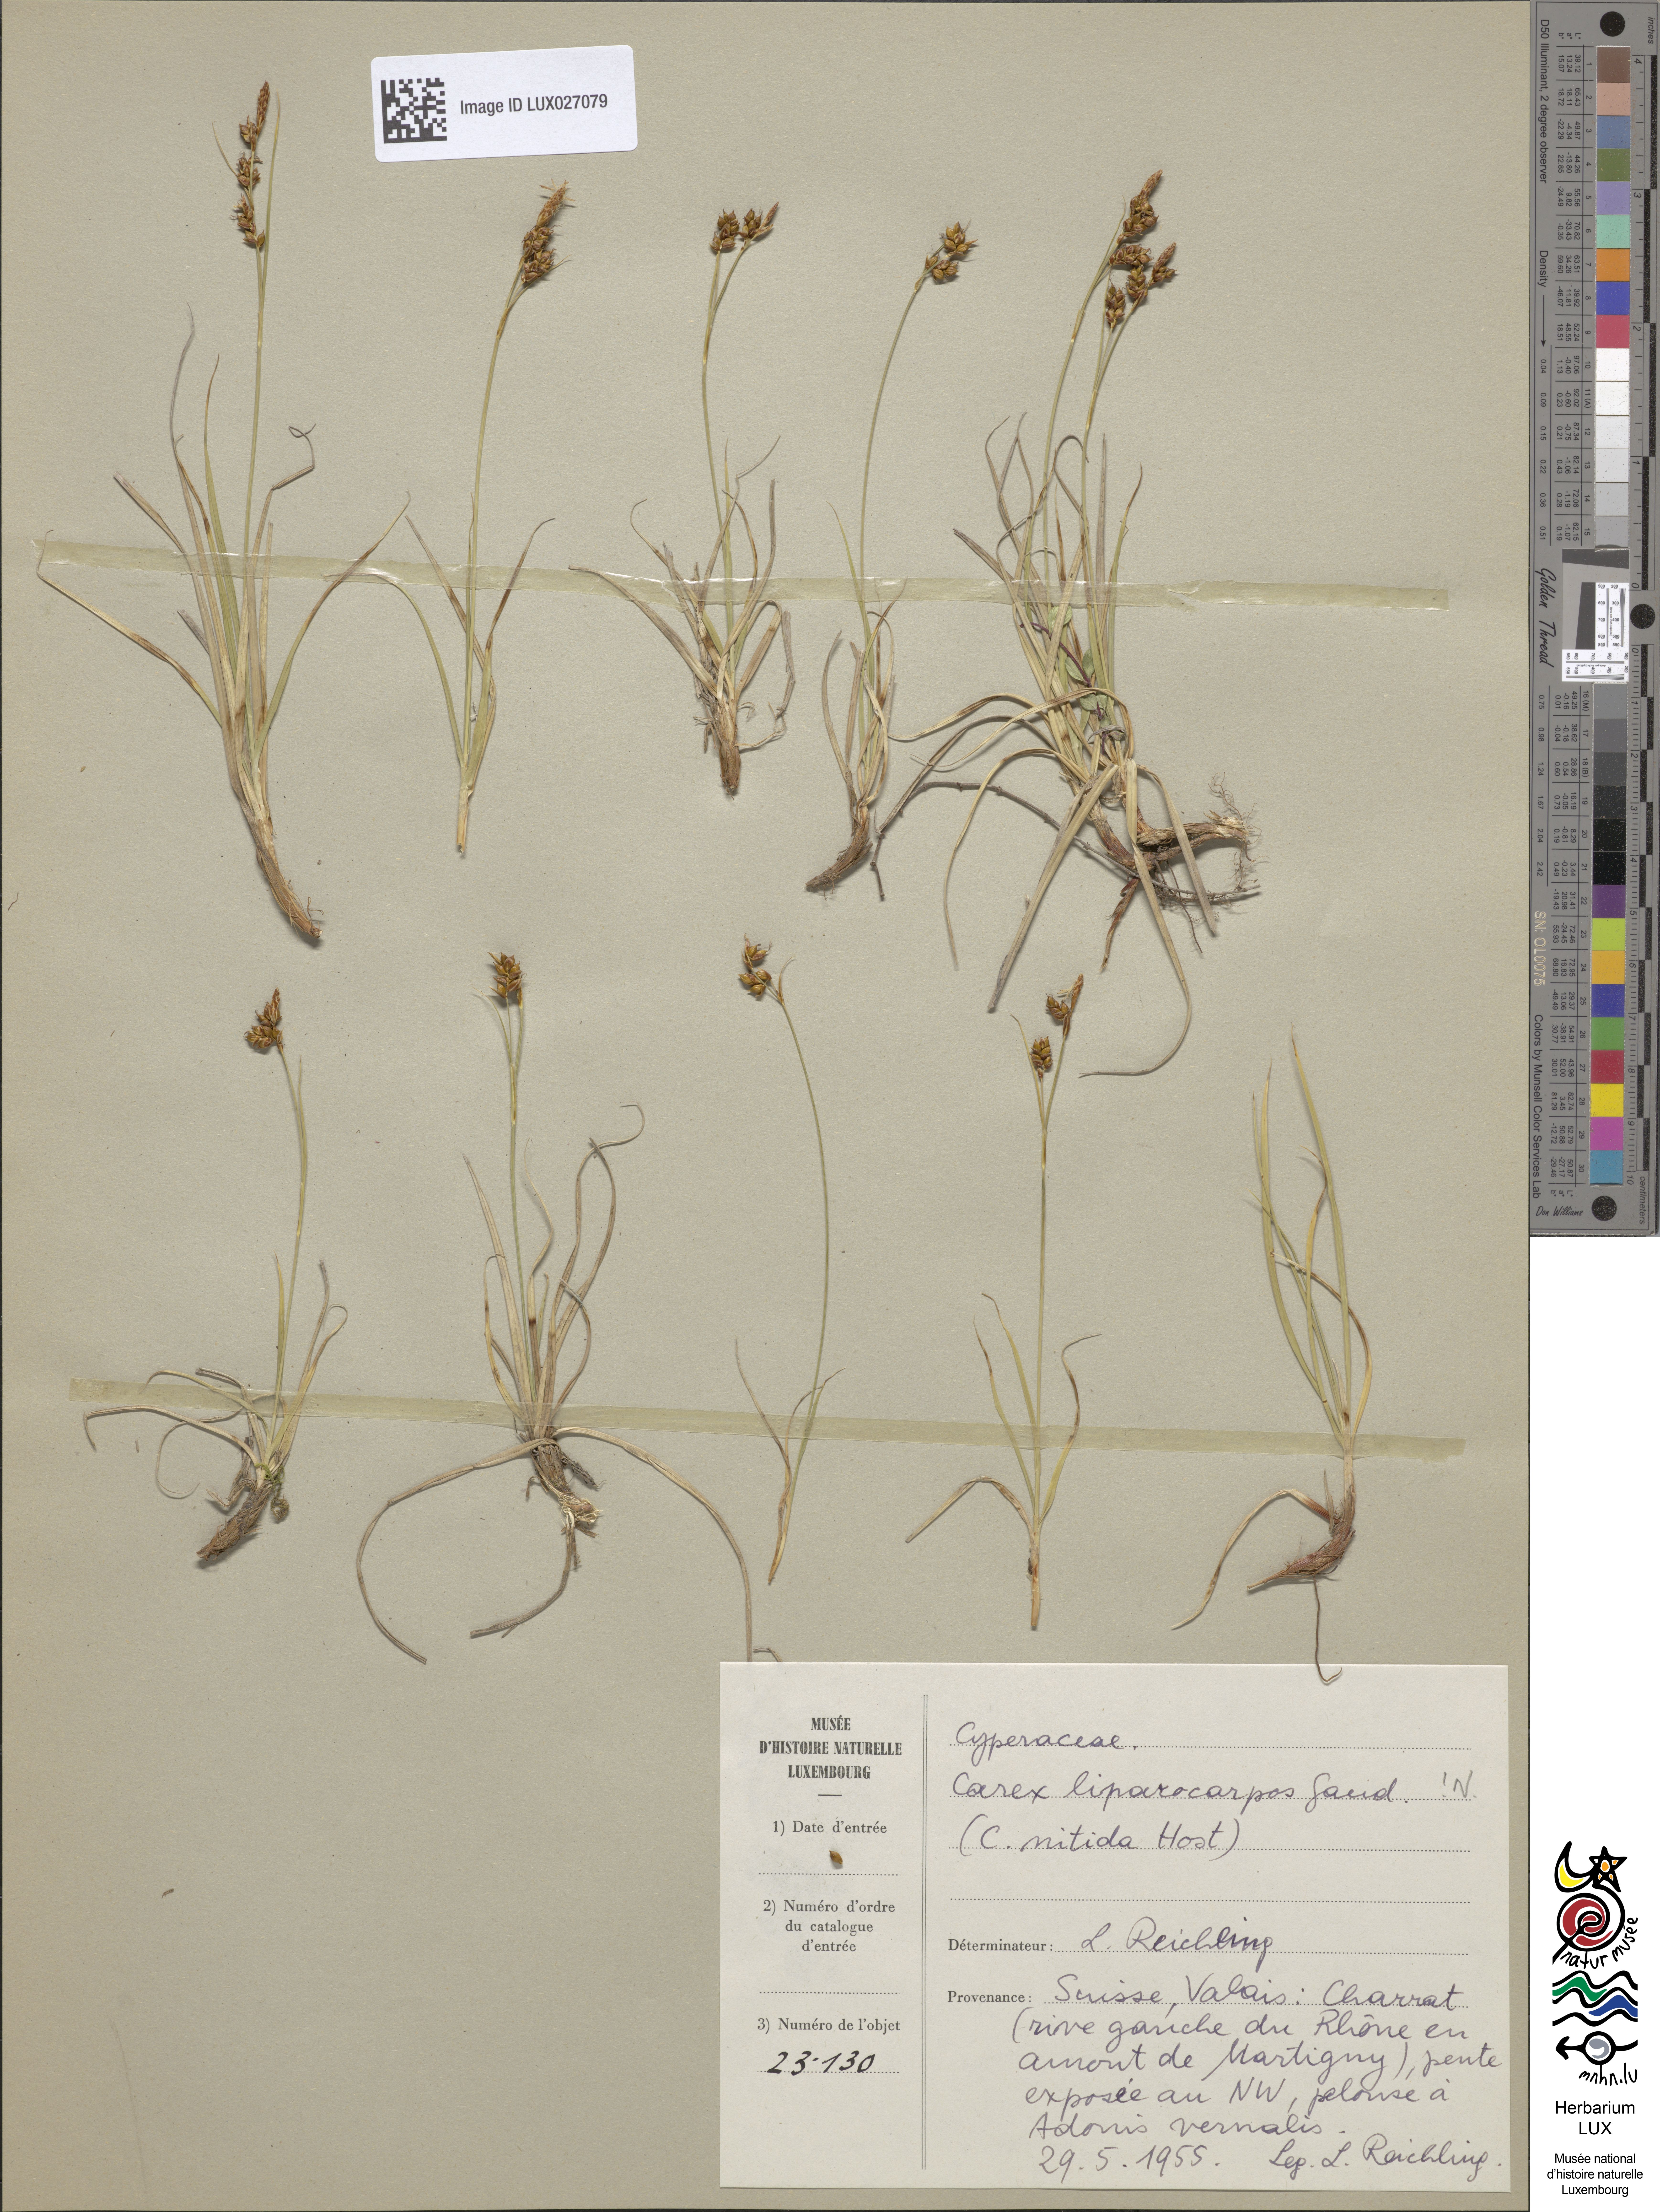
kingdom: Plantae
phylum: Tracheophyta
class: Liliopsida
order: Poales
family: Cyperaceae
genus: Carex
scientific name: Carex liparocarpos
